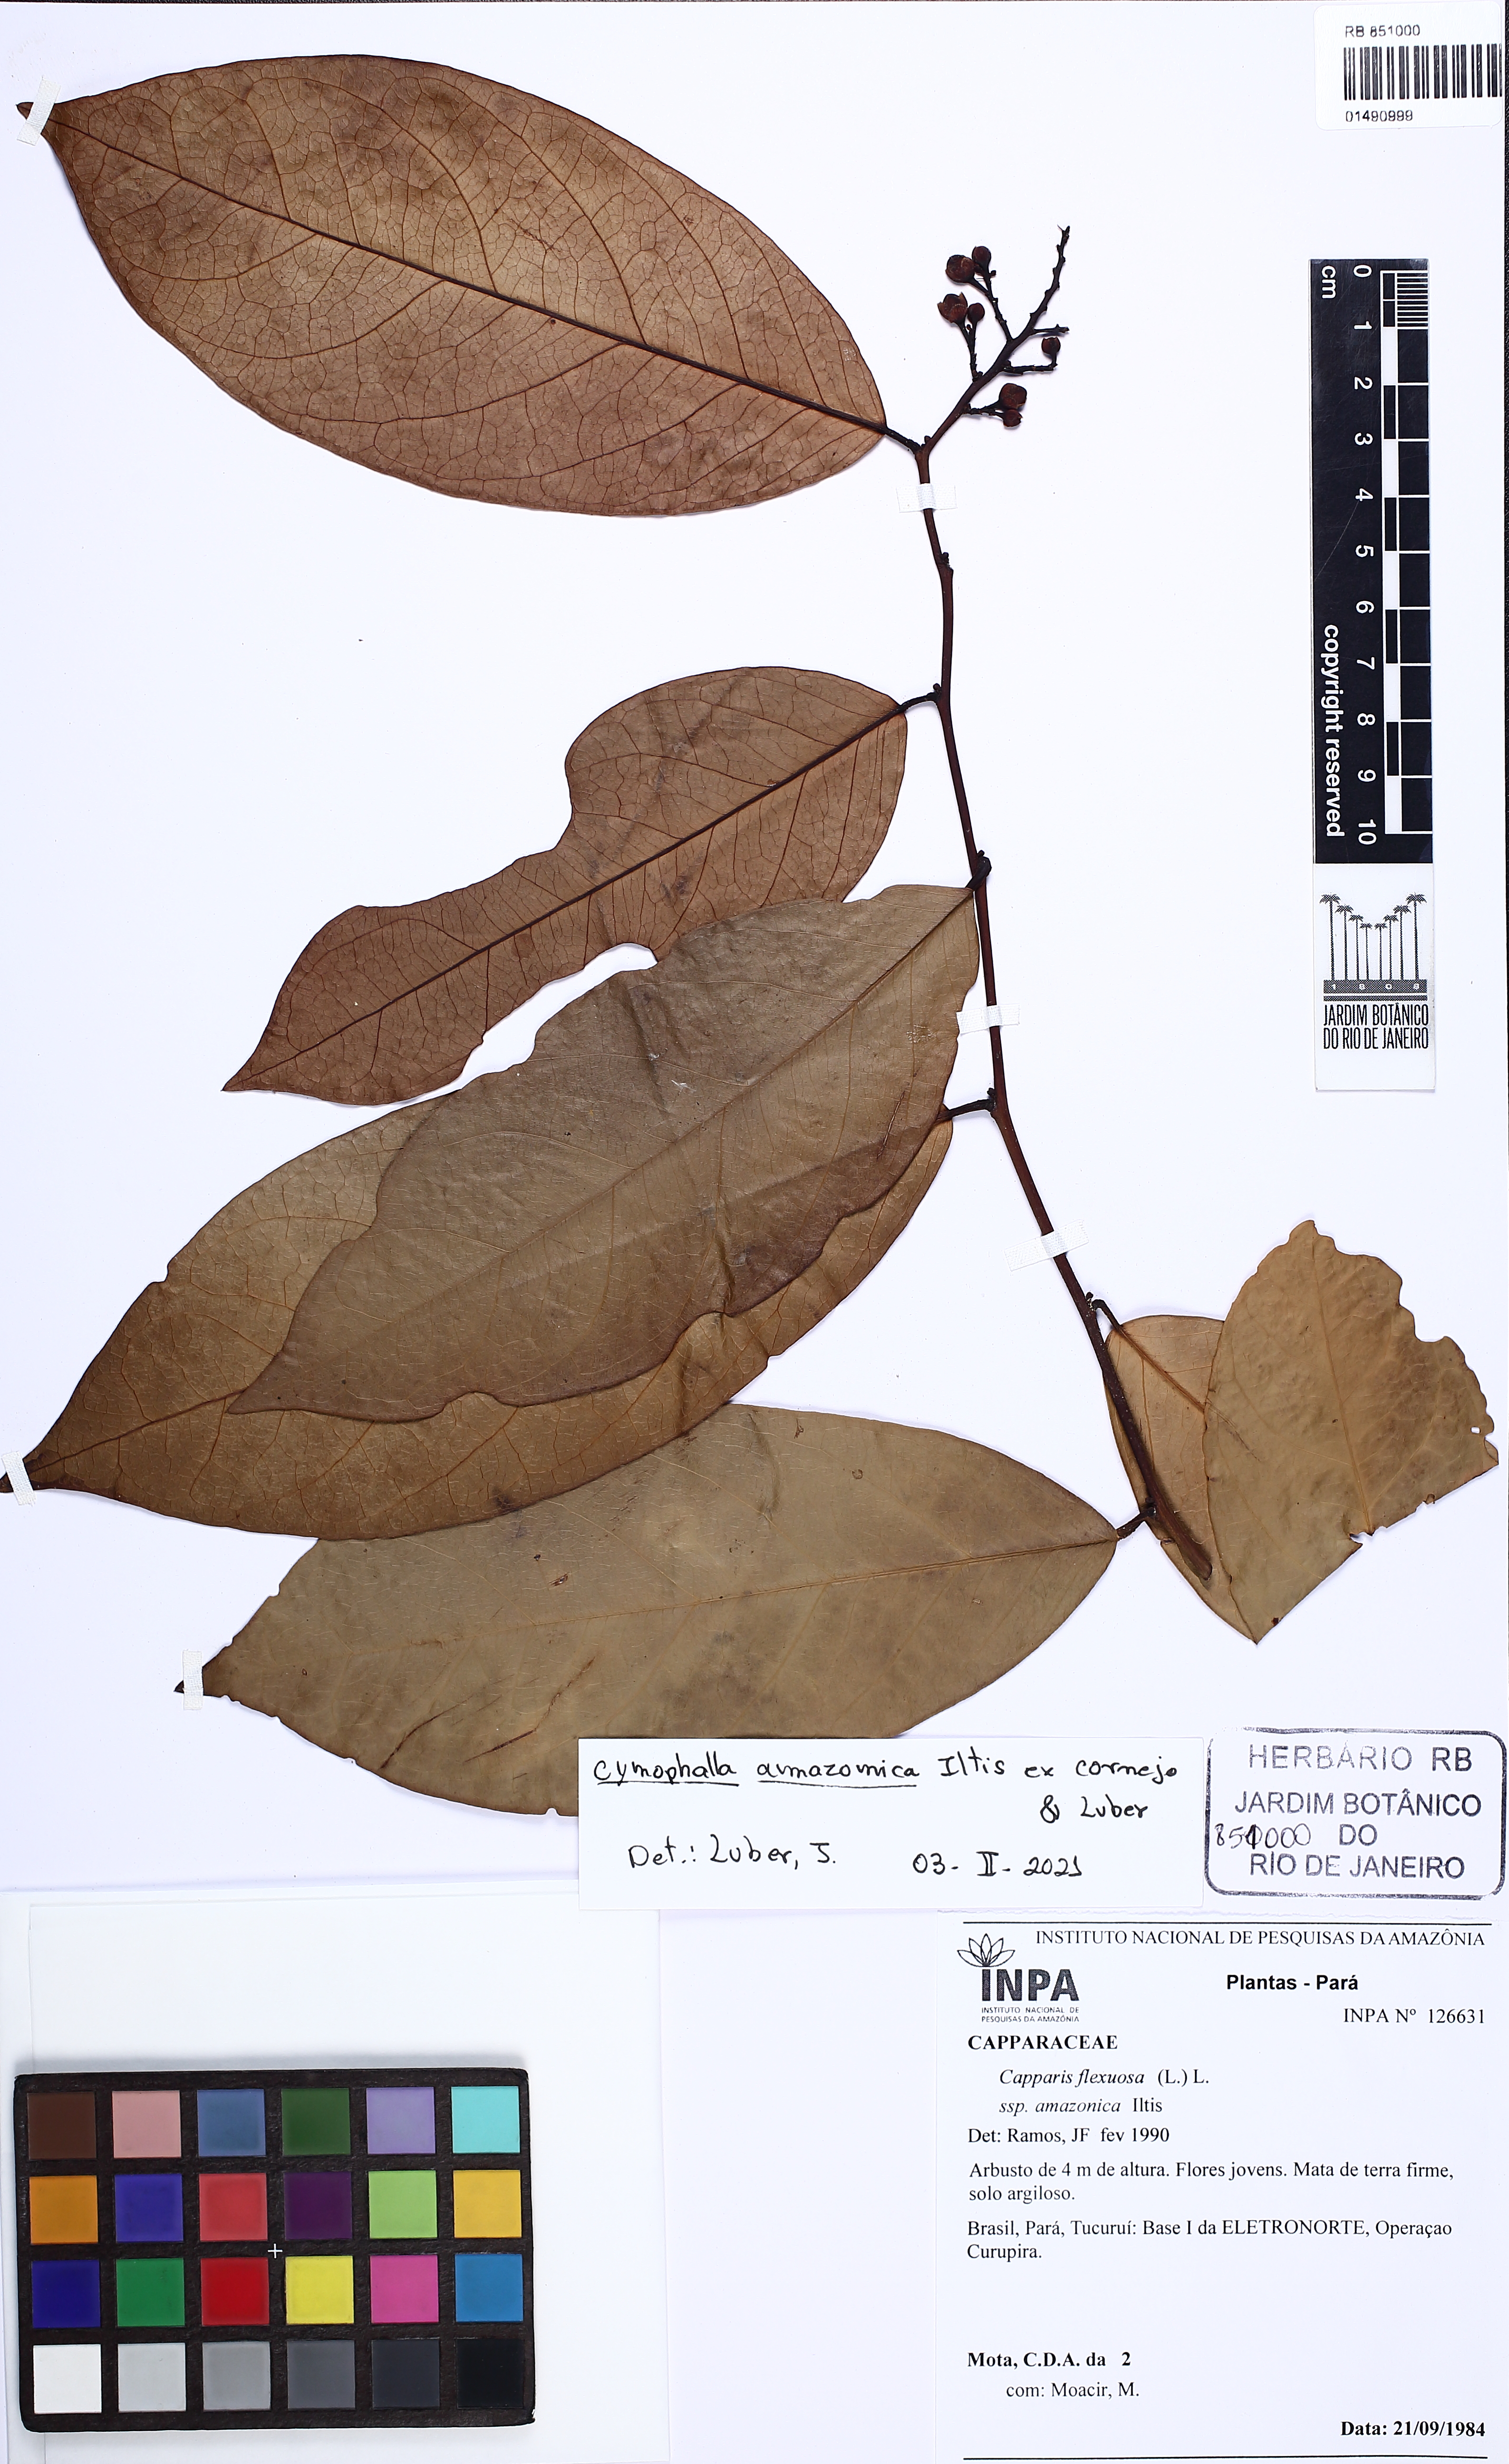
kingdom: Plantae
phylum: Tracheophyta
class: Magnoliopsida
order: Brassicales
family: Capparaceae
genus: Cynophalla
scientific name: Cynophalla amazonica
